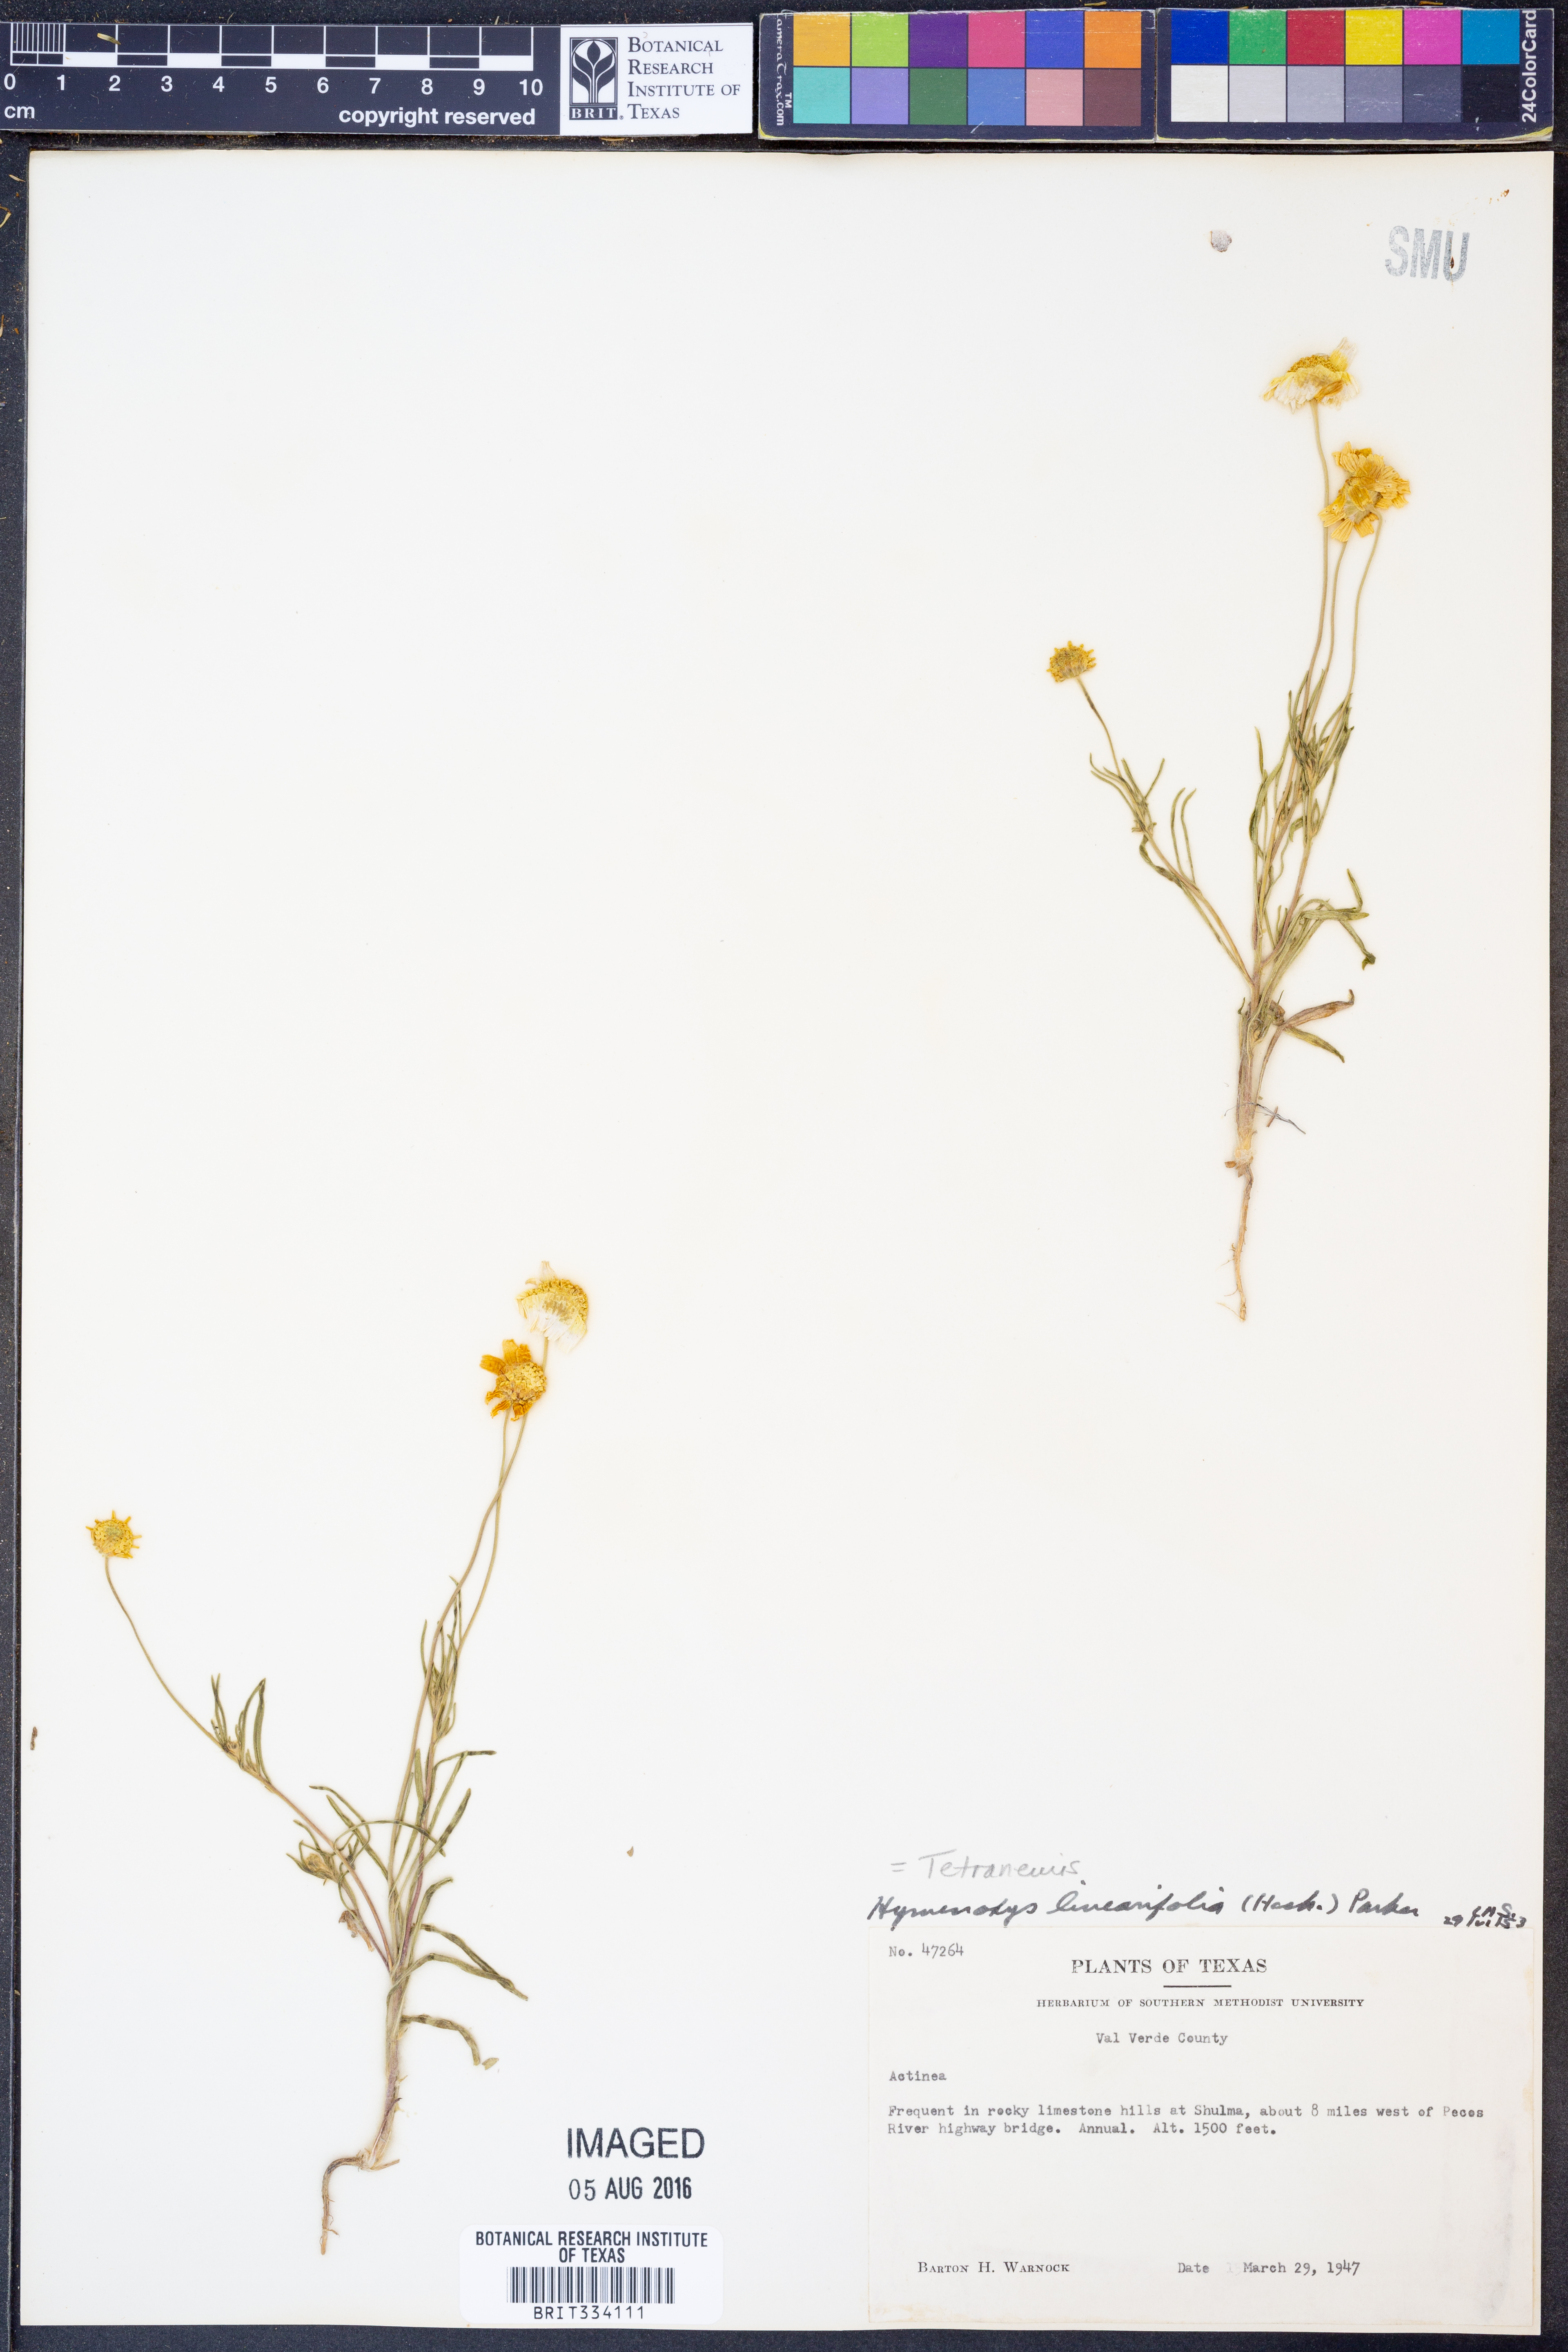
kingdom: Plantae
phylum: Tracheophyta
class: Magnoliopsida
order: Asterales
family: Asteraceae
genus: Tetraneuris
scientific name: Tetraneuris linearifolia
